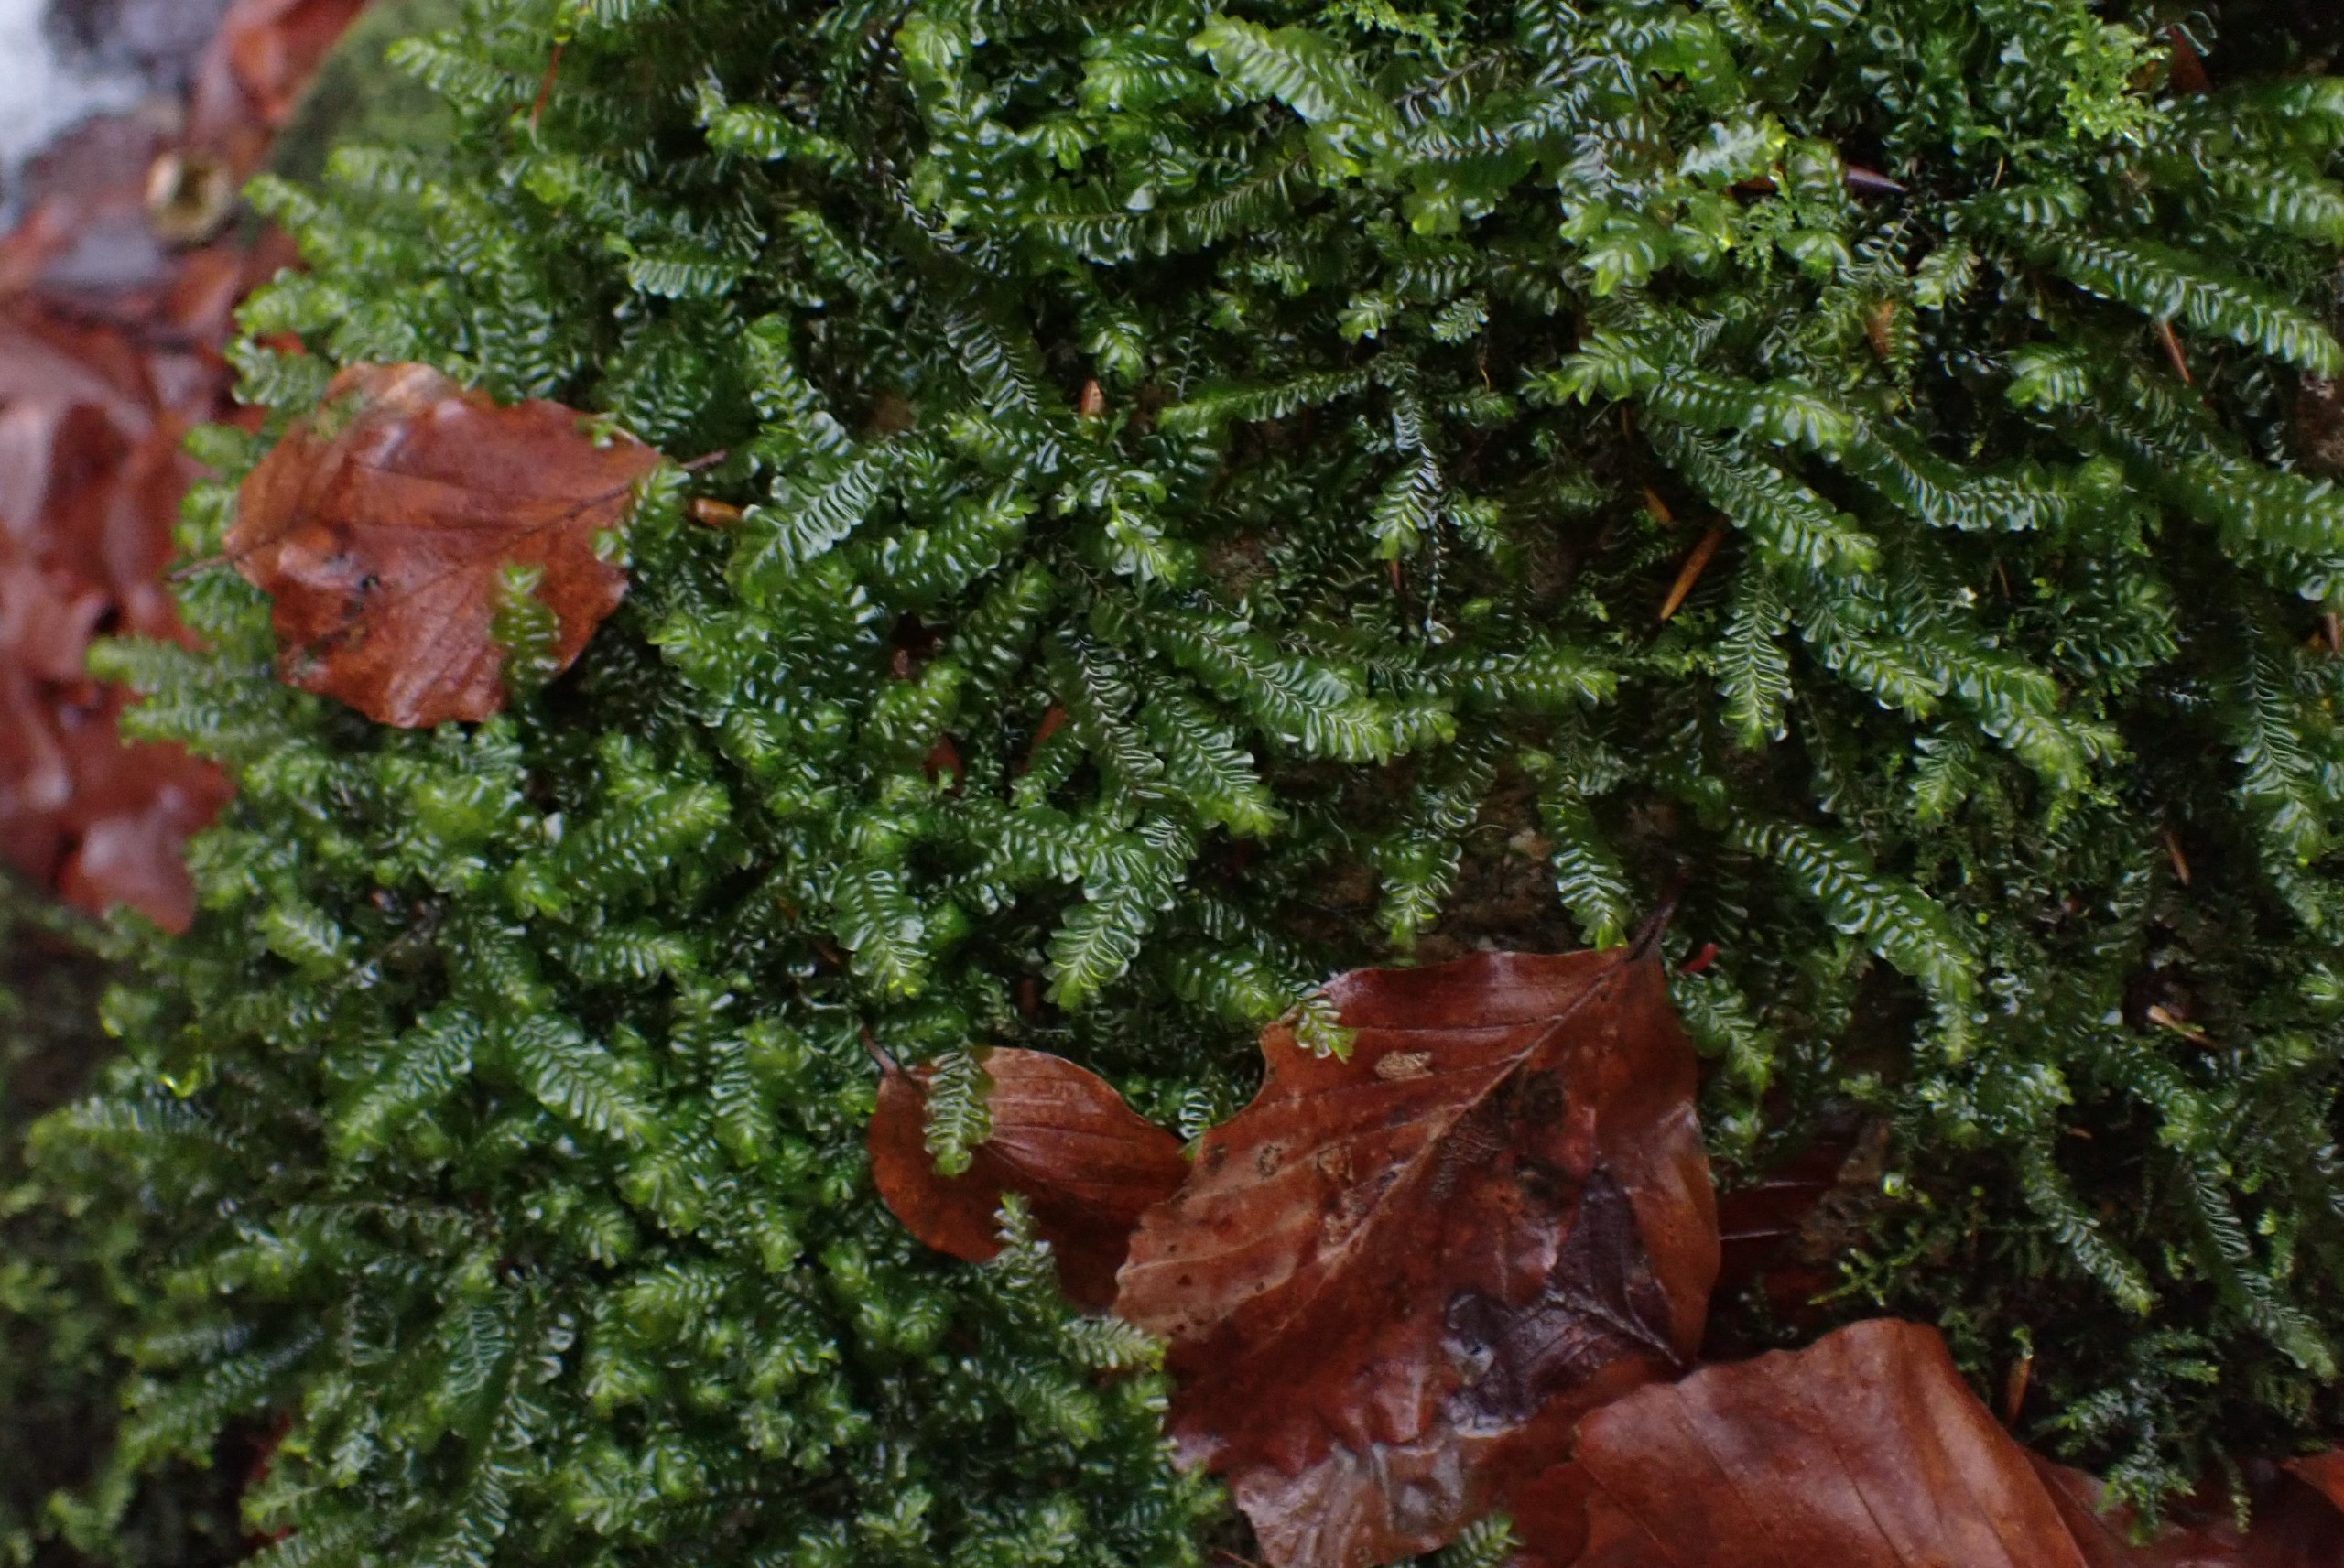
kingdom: Plantae
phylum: Marchantiophyta
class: Jungermanniopsida
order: Jungermanniales
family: Plagiochilaceae
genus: Plagiochila
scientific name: Plagiochila asplenioides
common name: Radeløv-hindeblad
